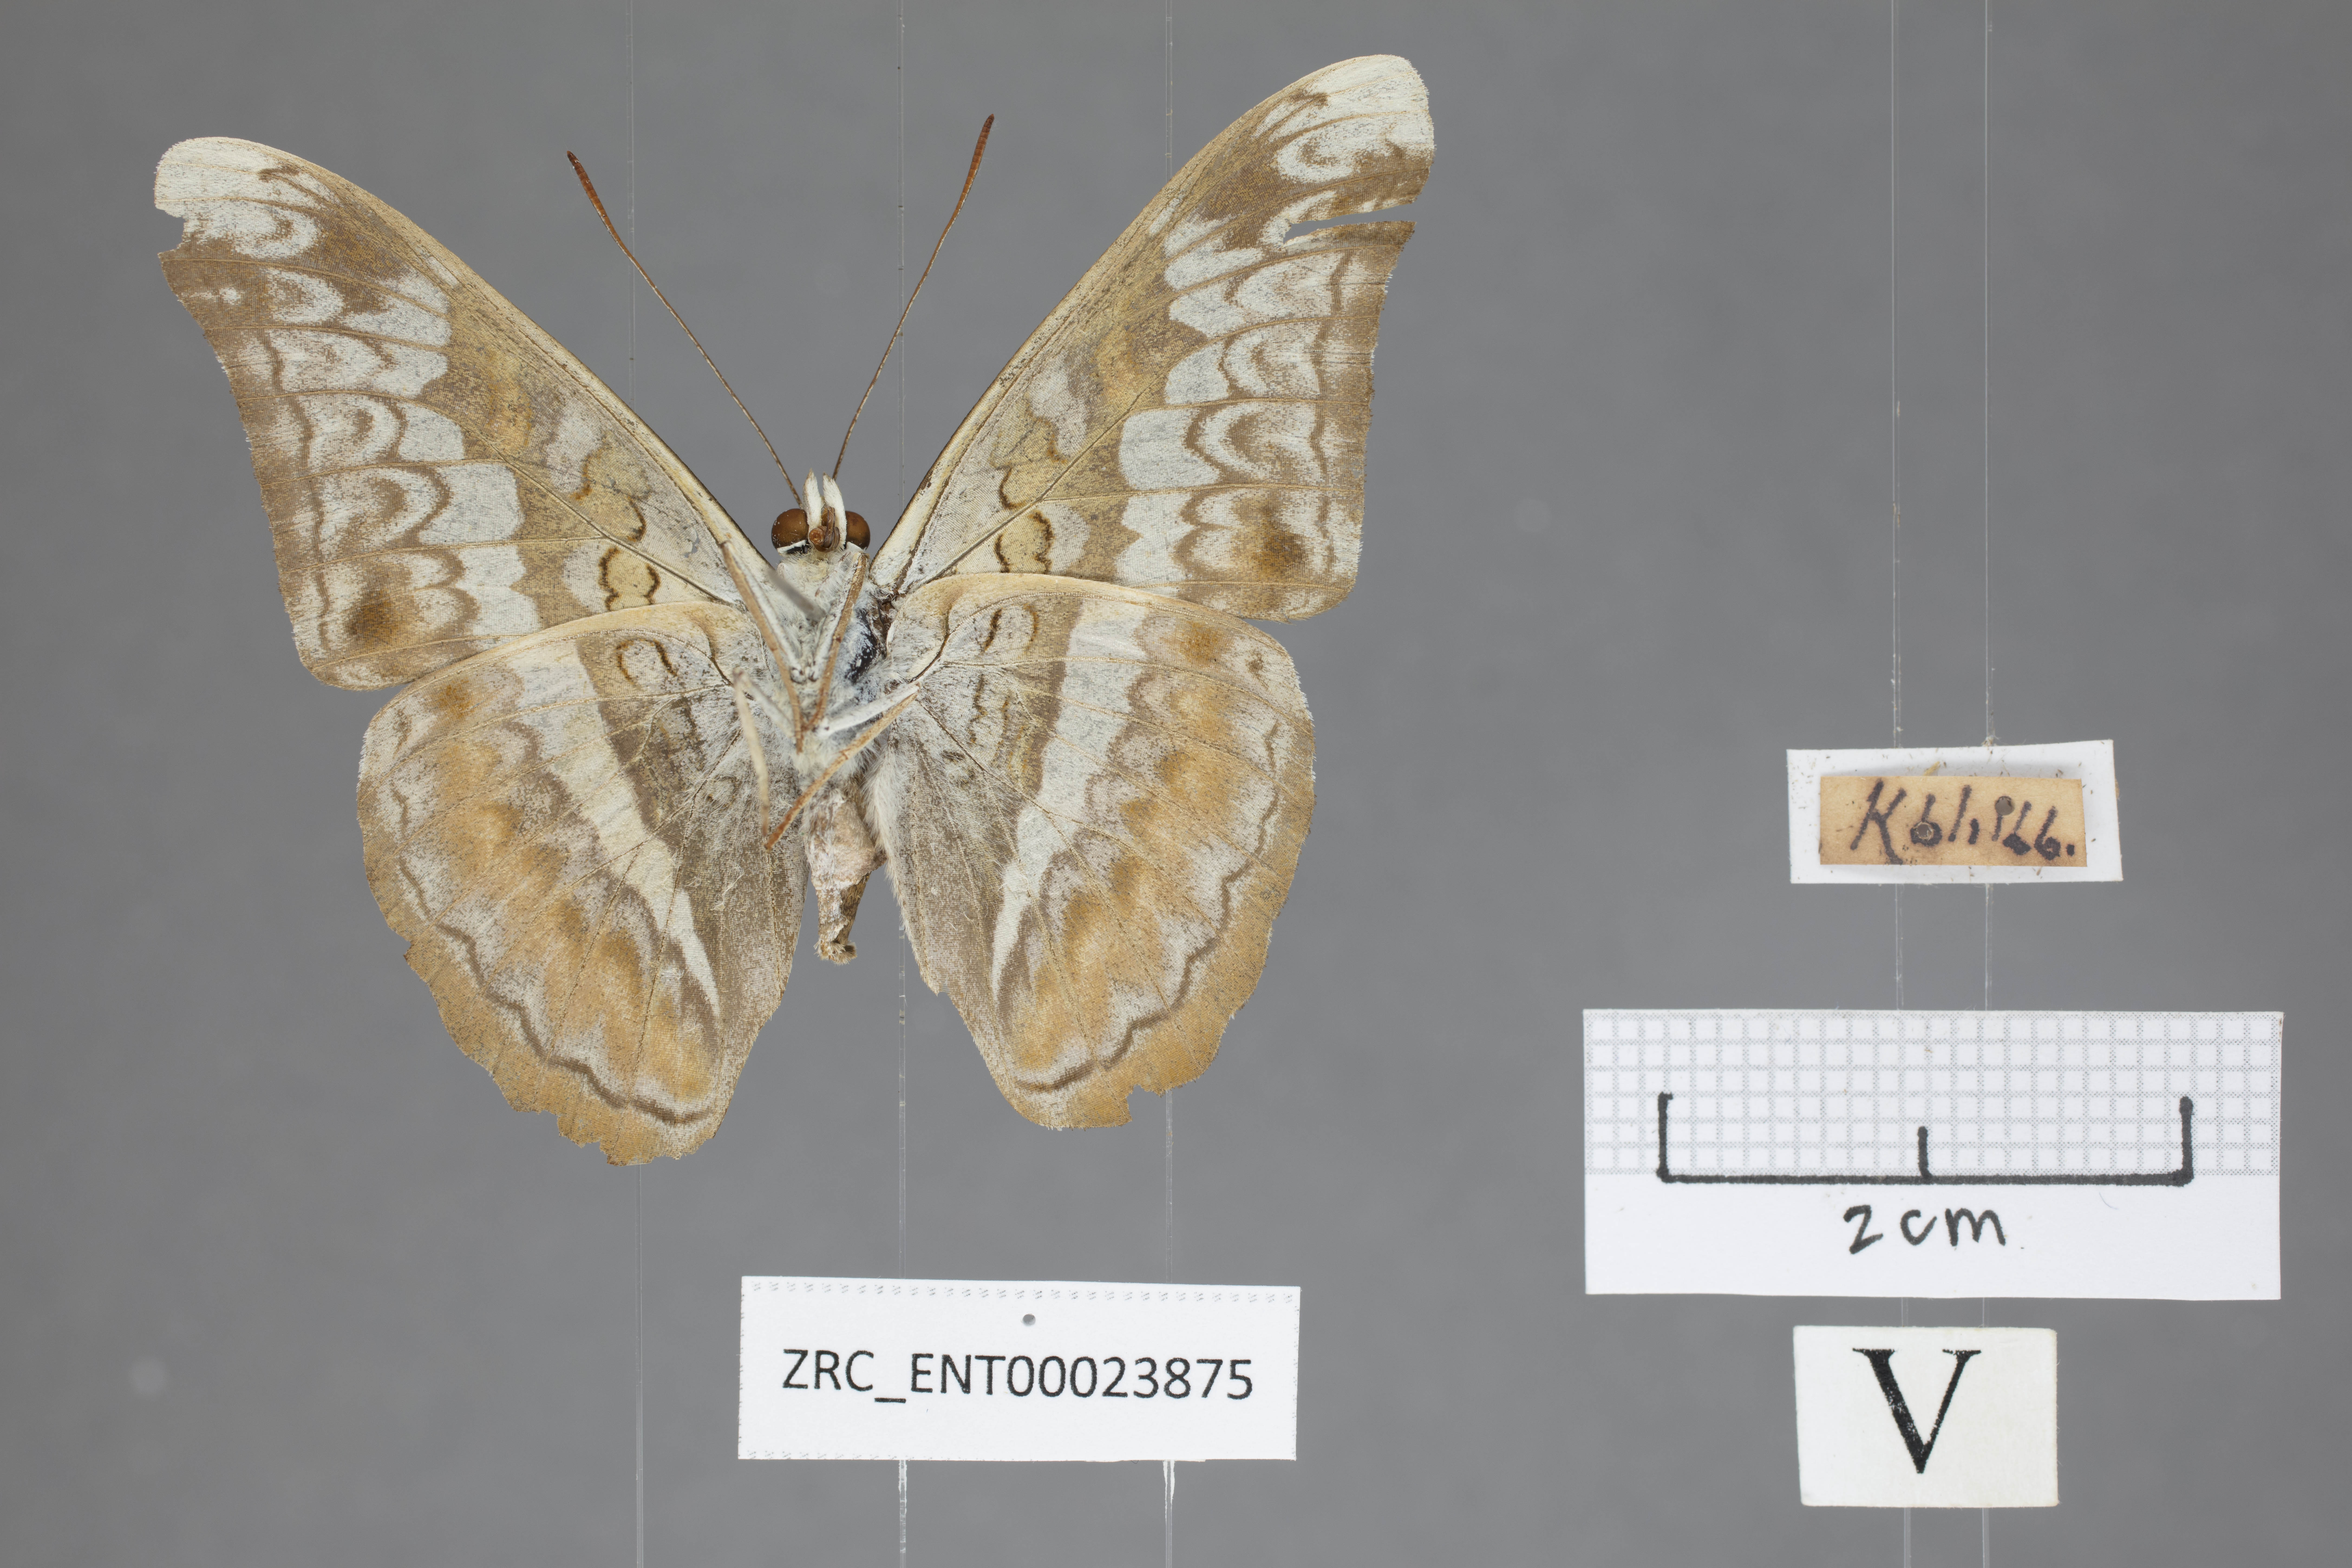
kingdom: Animalia
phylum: Arthropoda
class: Insecta
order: Lepidoptera
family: Nymphalidae
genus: Lebadea
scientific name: Lebadea martha
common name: Knight
